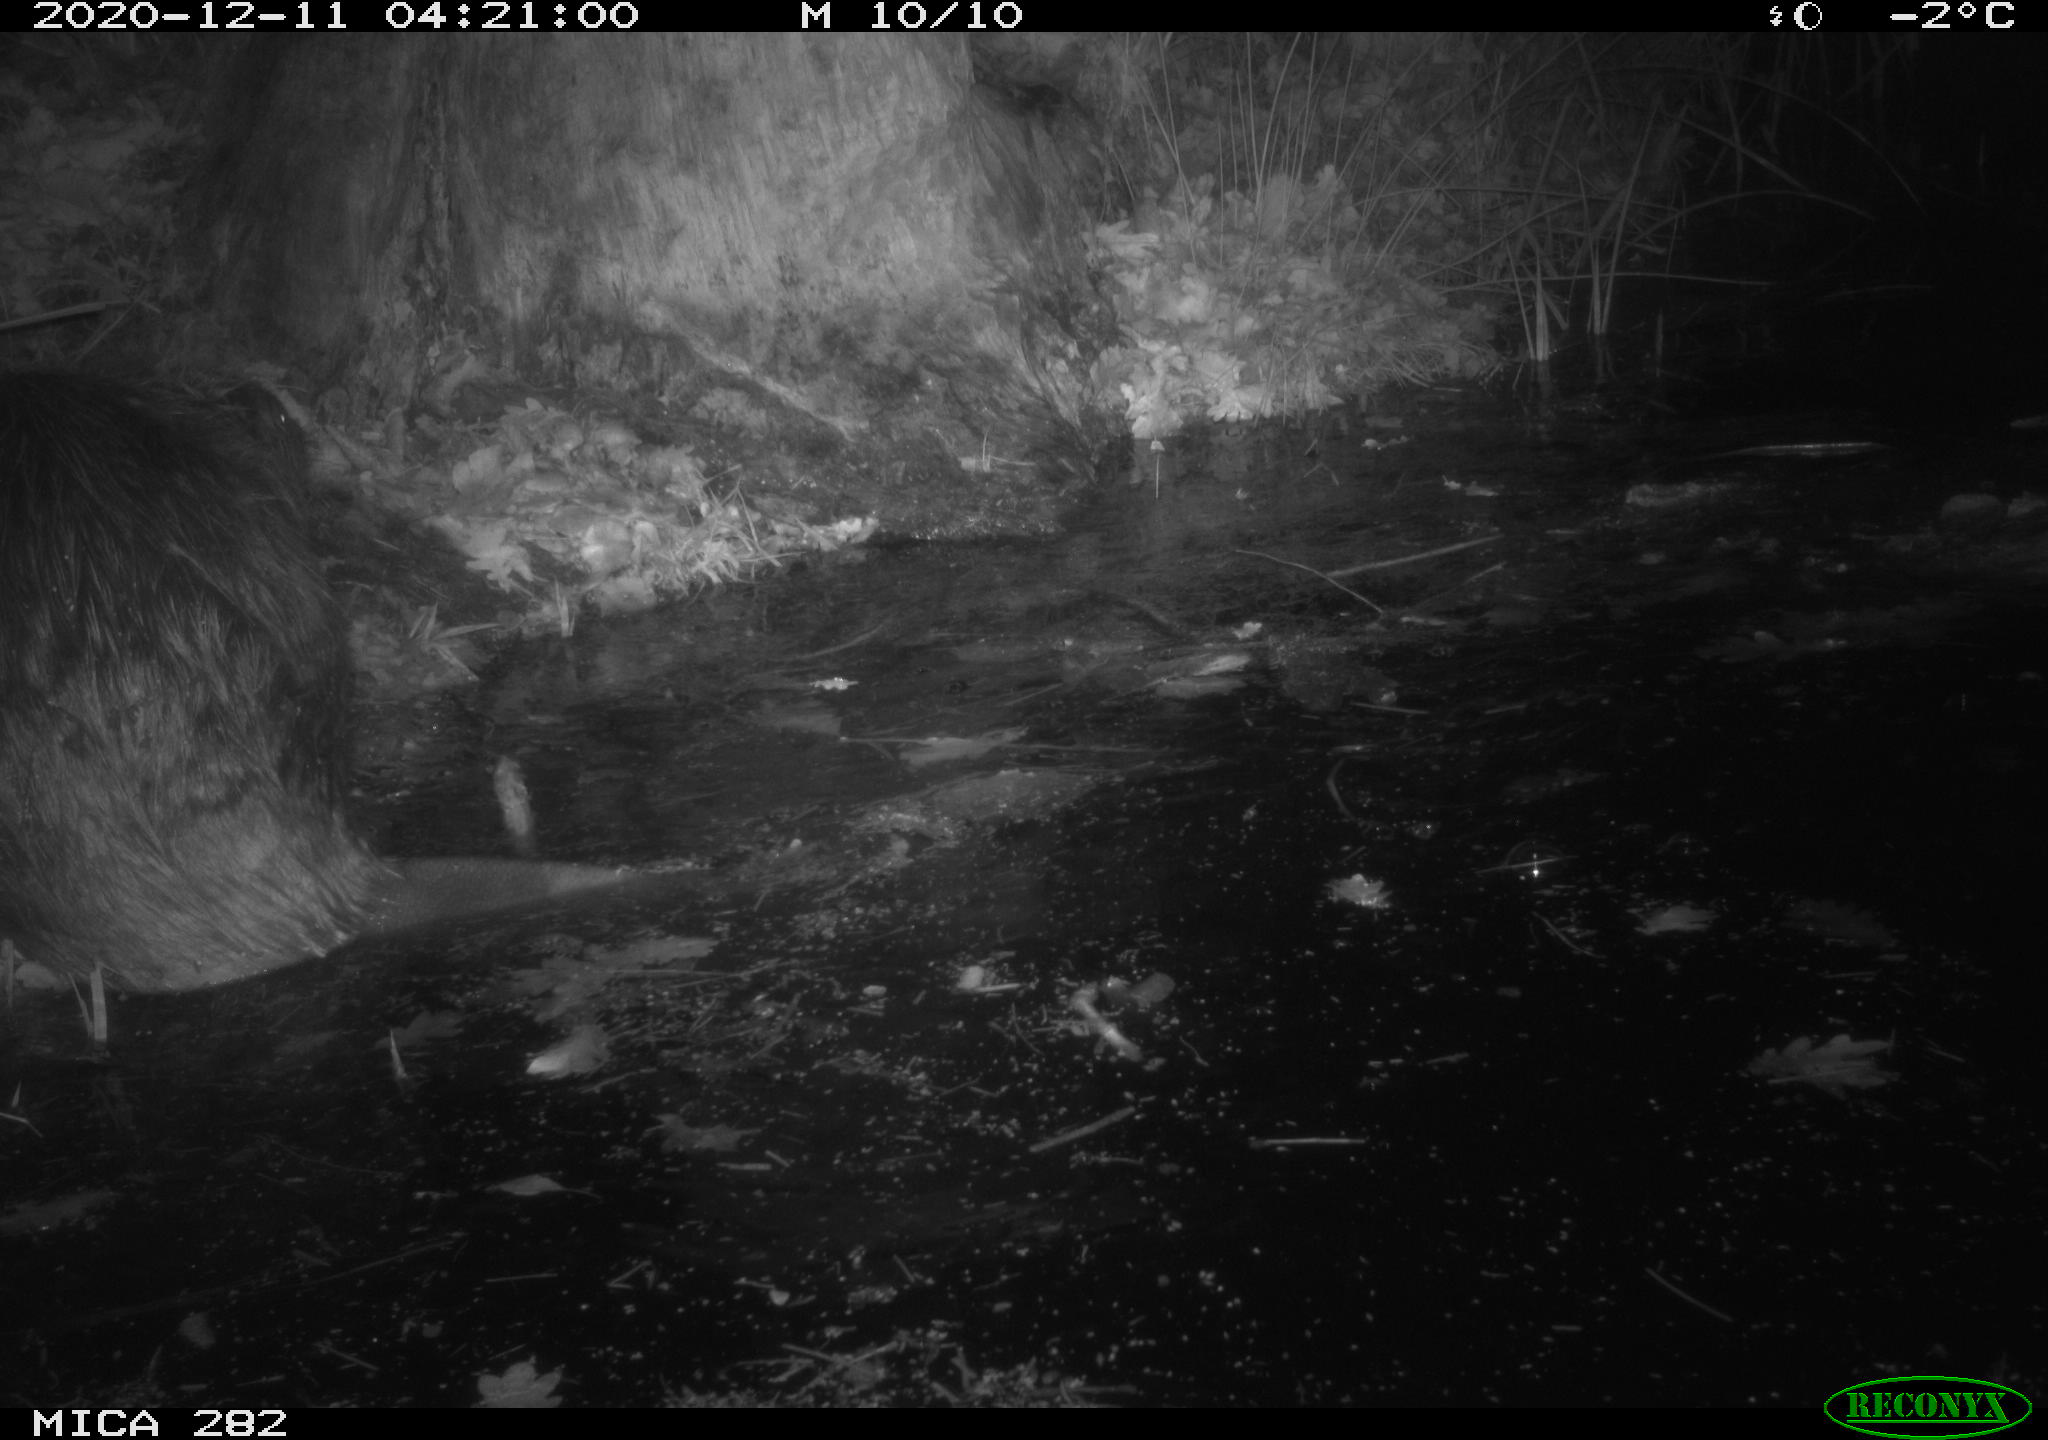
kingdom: Animalia
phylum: Chordata
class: Mammalia
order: Rodentia
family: Castoridae
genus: Castor
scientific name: Castor fiber
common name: Eurasian beaver
